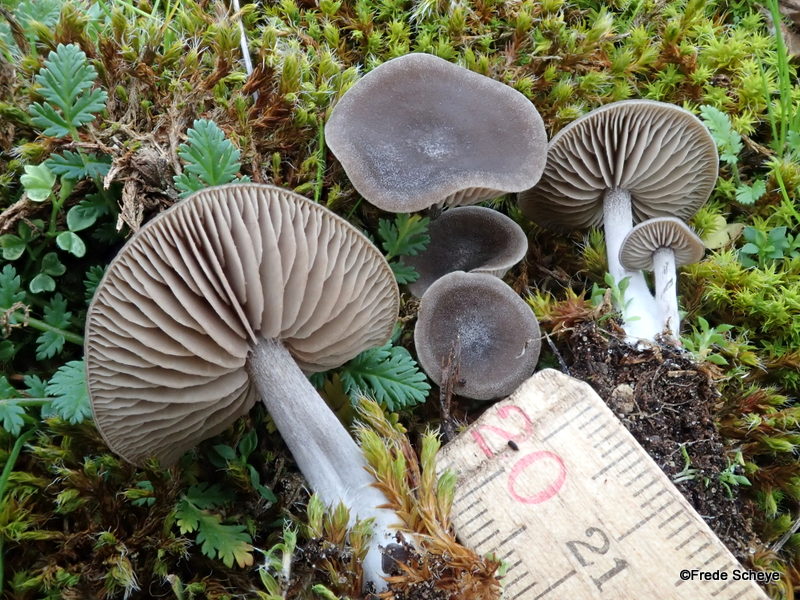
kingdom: Fungi
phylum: Basidiomycota
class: Agaricomycetes
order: Agaricales
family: Entolomataceae
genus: Entoloma
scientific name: Entoloma sericeum
